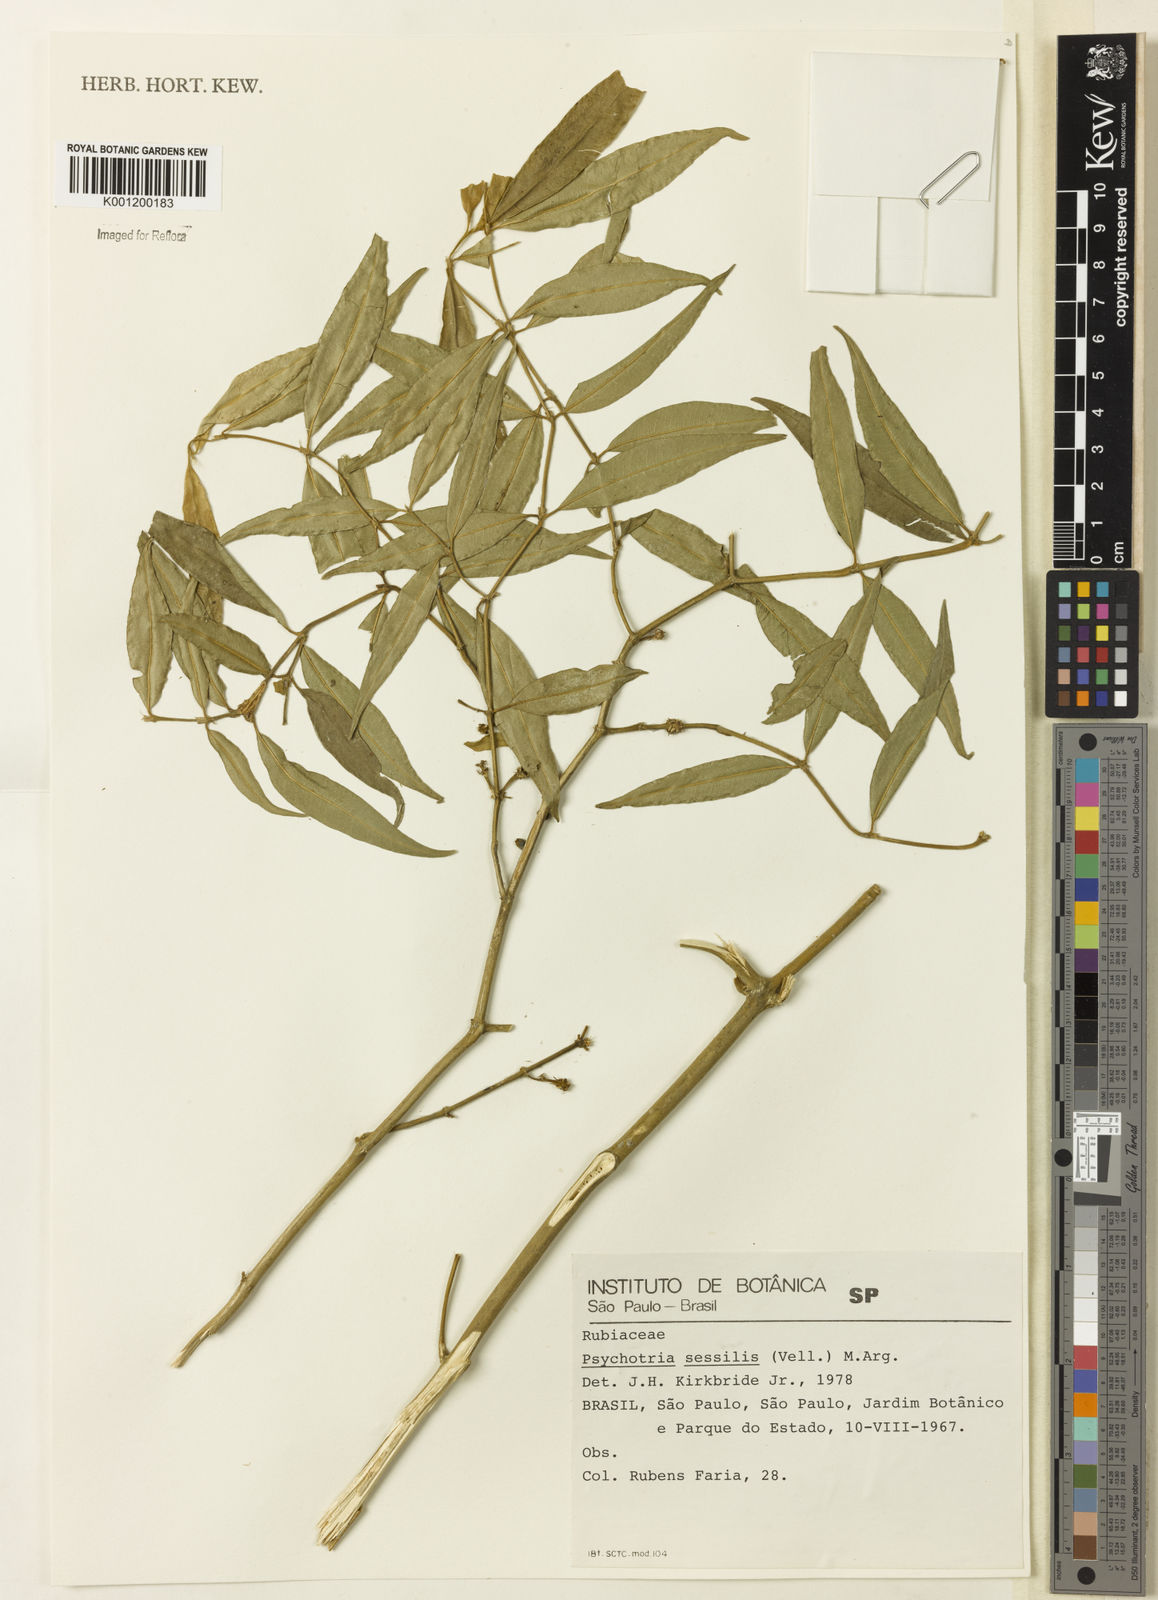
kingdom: Plantae
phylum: Tracheophyta
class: Magnoliopsida
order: Gentianales
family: Rubiaceae
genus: Rudgea
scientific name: Rudgea sessilis
